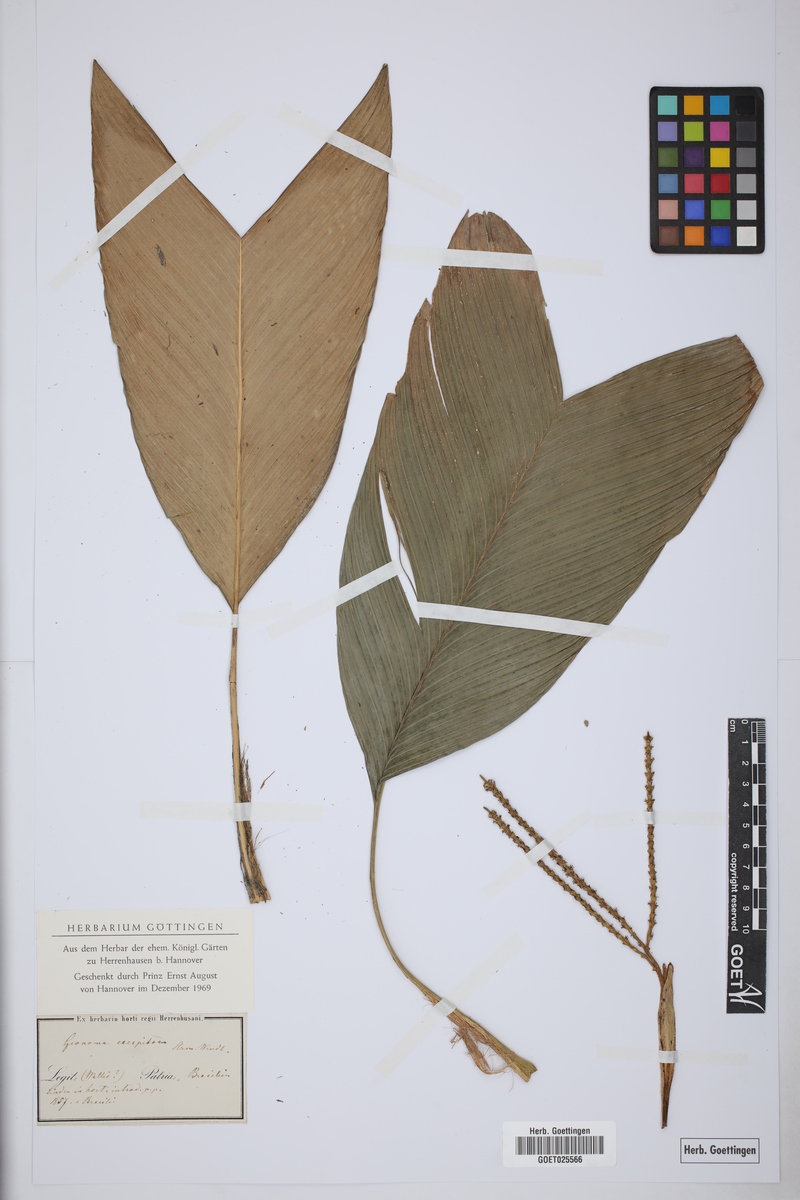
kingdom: Plantae
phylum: Tracheophyta
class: Liliopsida
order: Arecales
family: Arecaceae
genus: Geonoma
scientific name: Geonoma pauciflora
